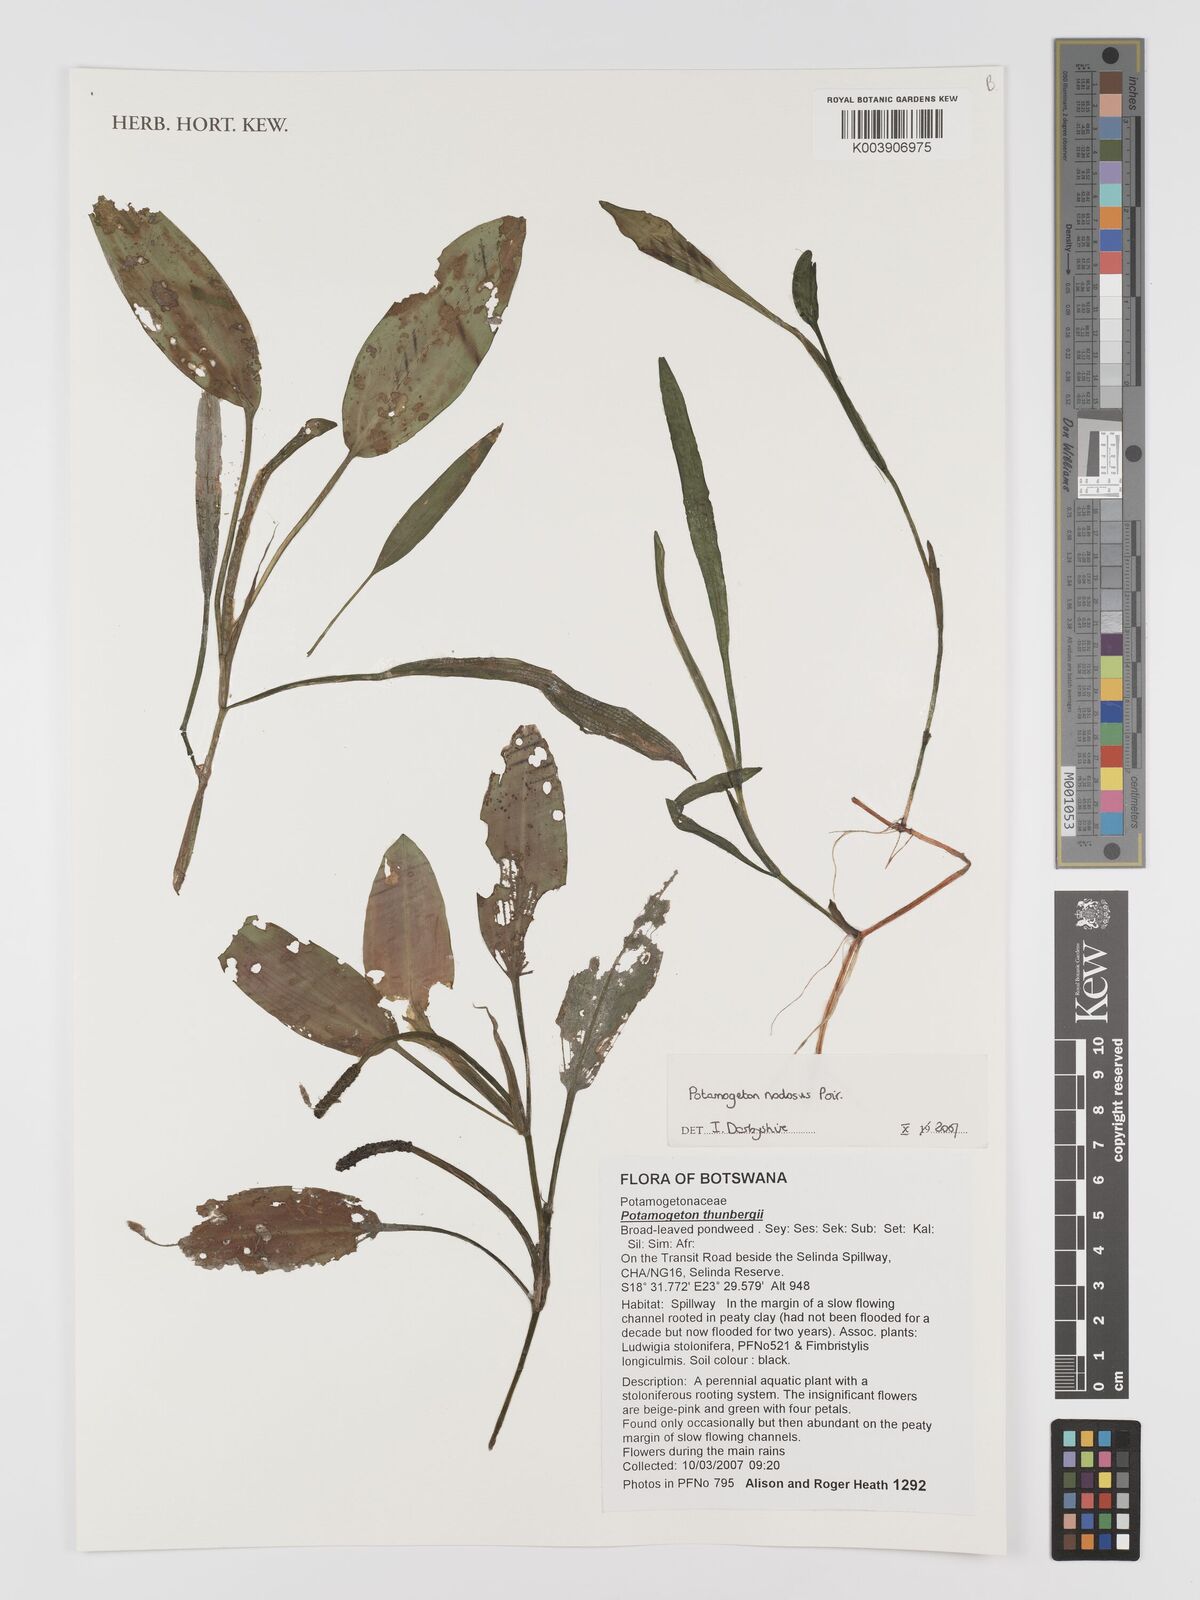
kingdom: Plantae
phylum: Tracheophyta
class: Liliopsida
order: Alismatales
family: Potamogetonaceae
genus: Potamogeton
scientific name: Potamogeton nodosus
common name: Loddon pondweed
